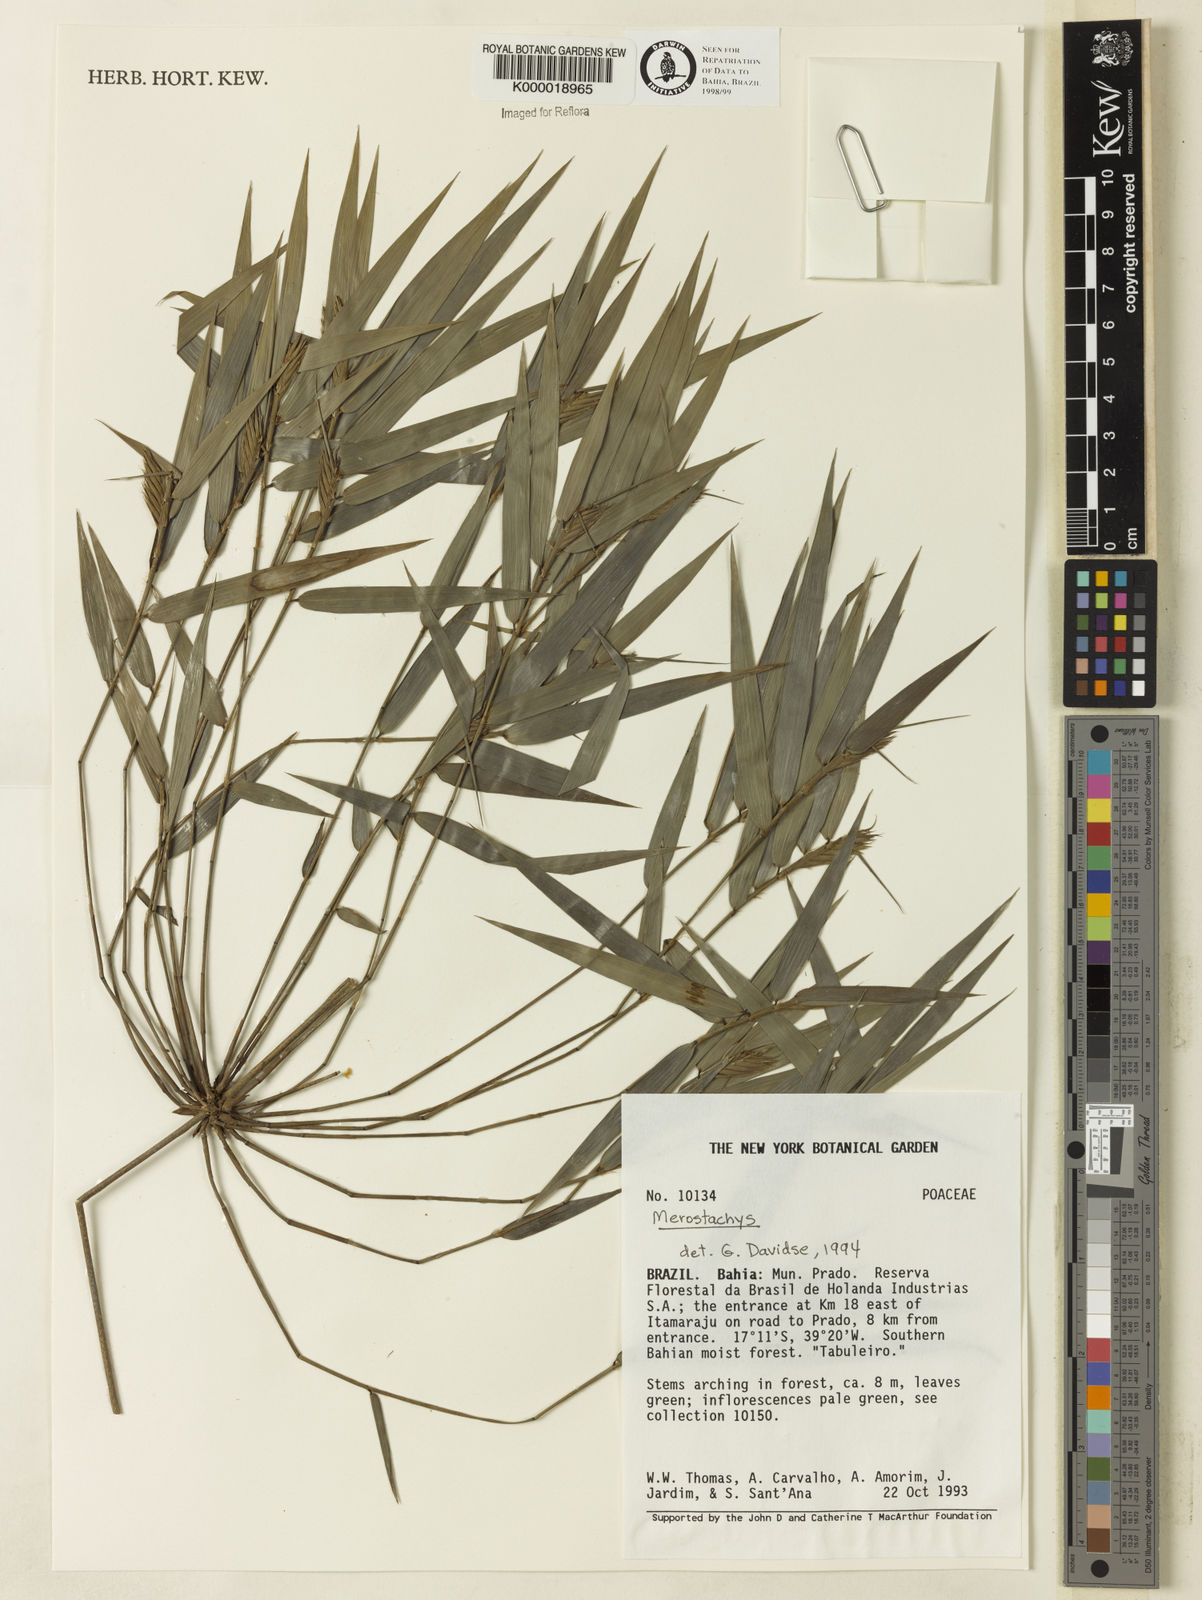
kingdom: Plantae
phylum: Tracheophyta
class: Liliopsida
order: Poales
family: Poaceae
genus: Merostachys
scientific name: Merostachys
